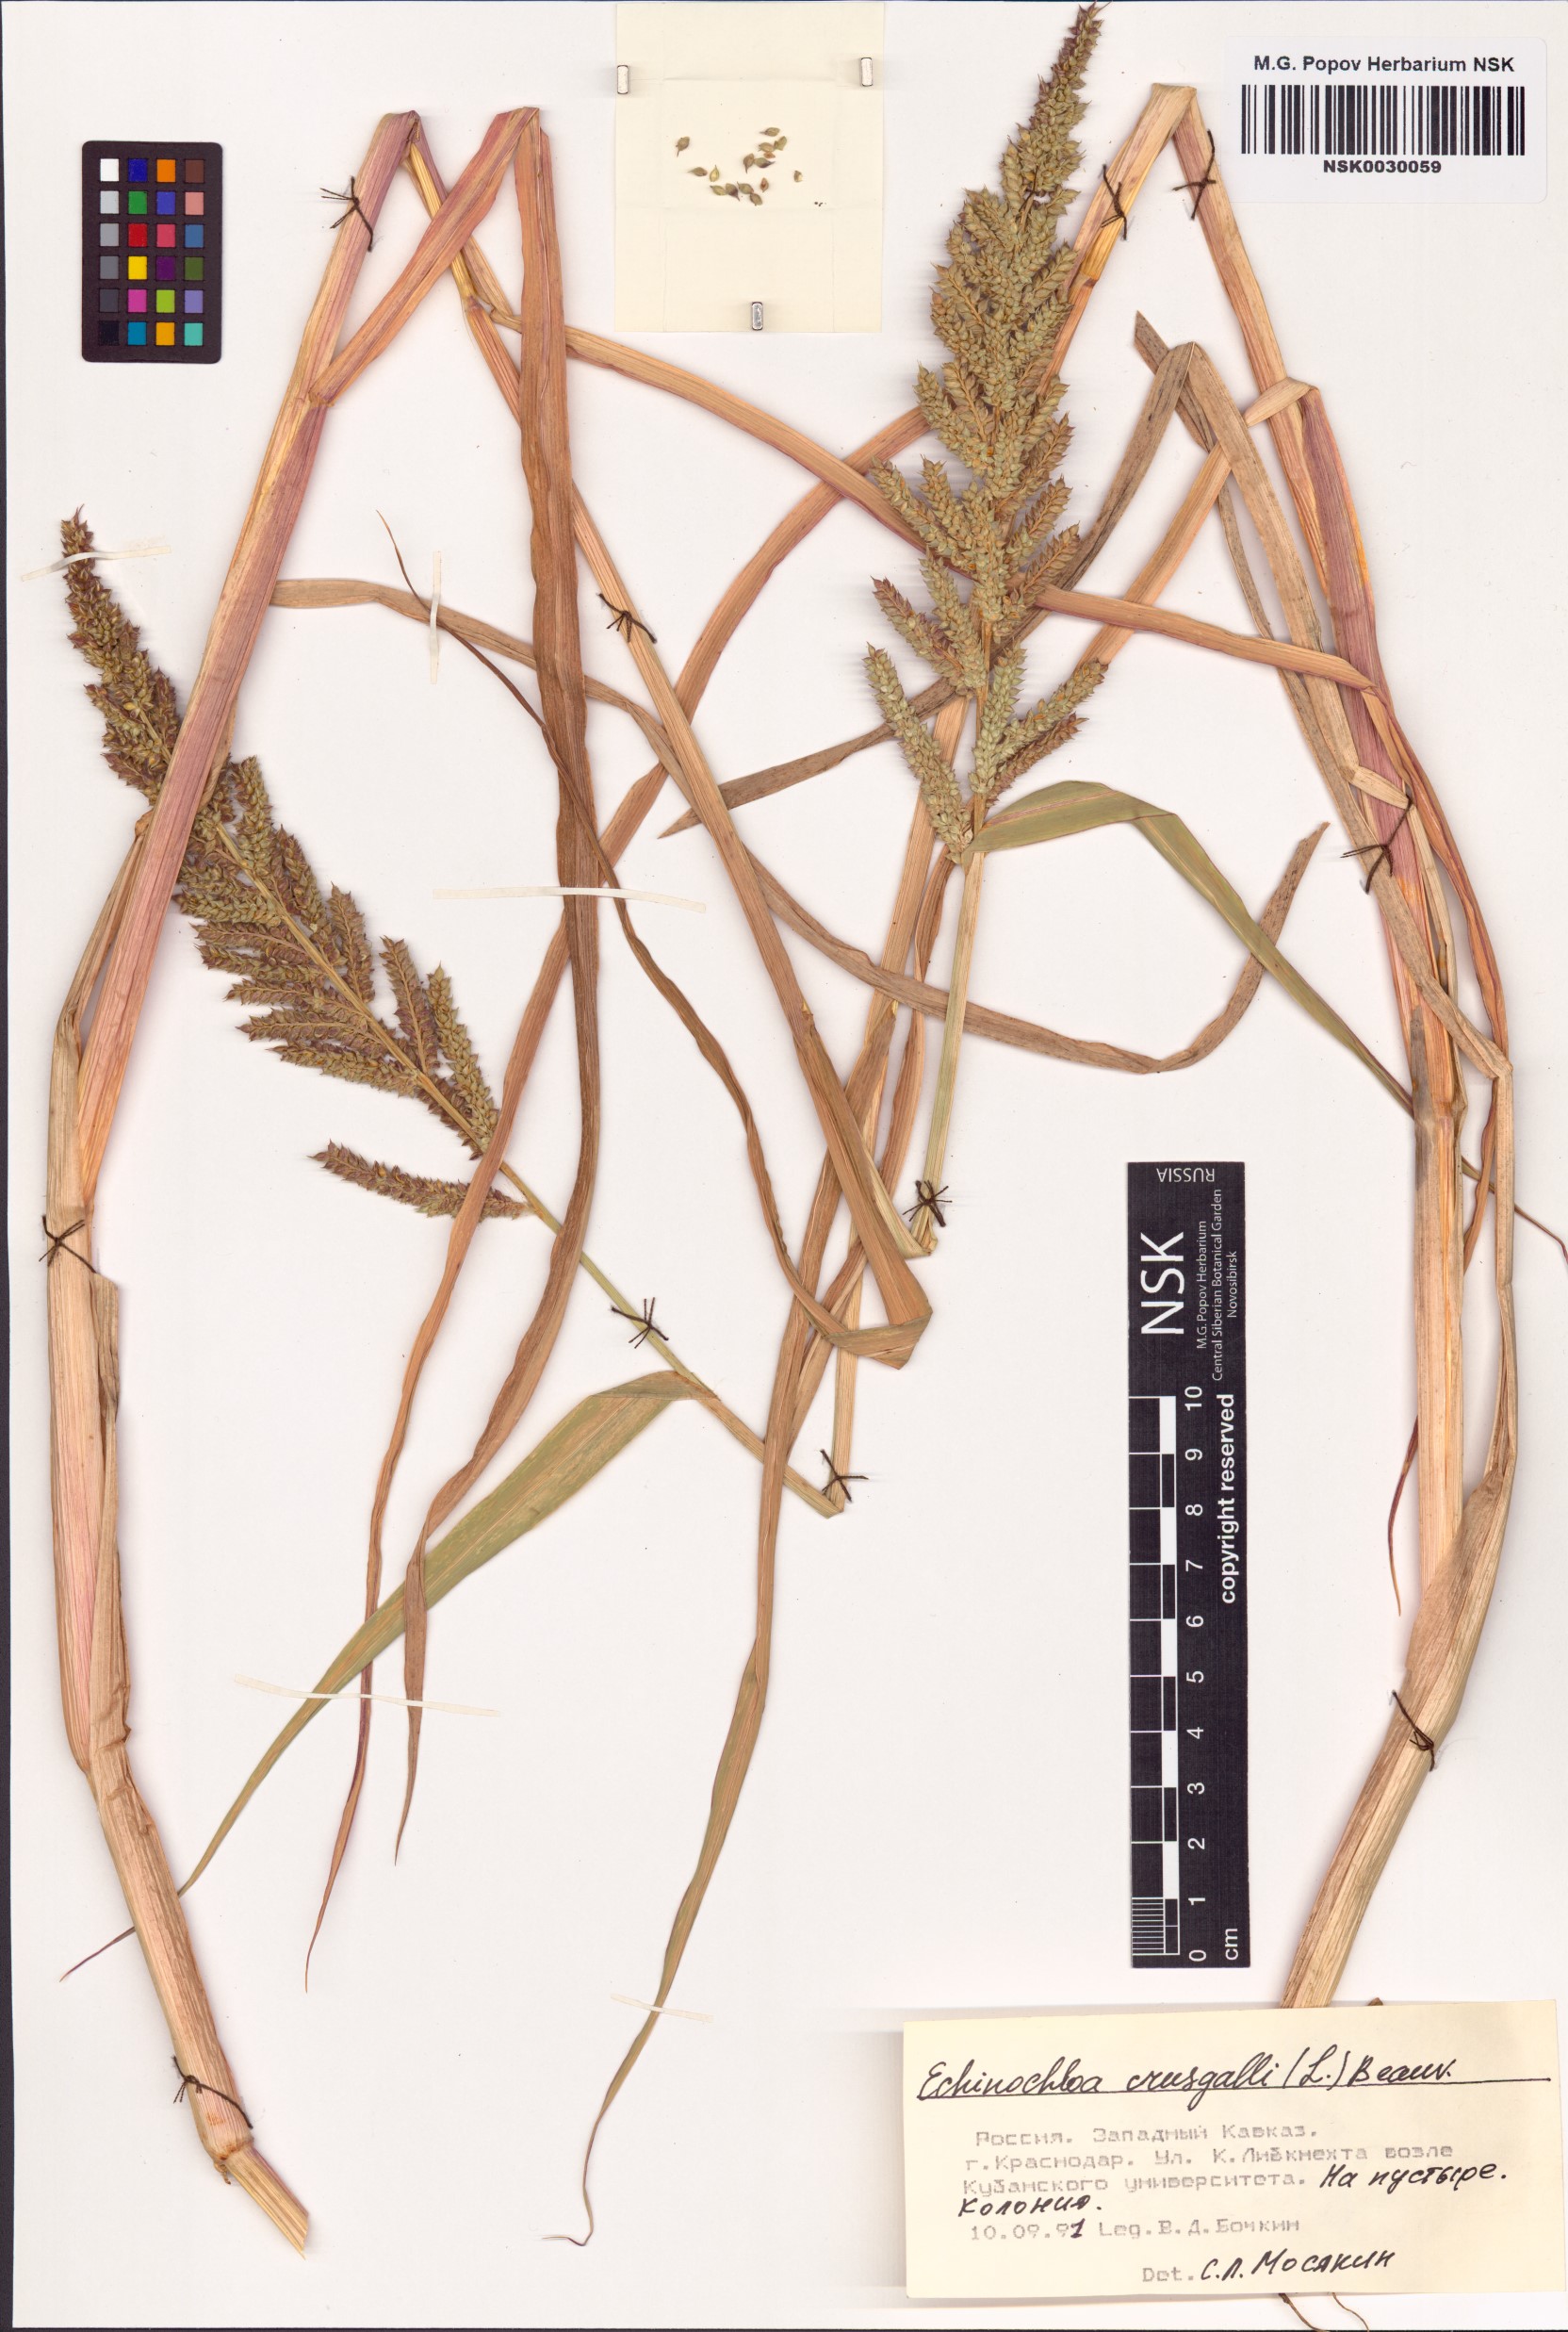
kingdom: Plantae
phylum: Tracheophyta
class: Liliopsida
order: Poales
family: Poaceae
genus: Echinochloa
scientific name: Echinochloa crus-galli
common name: Cockspur
